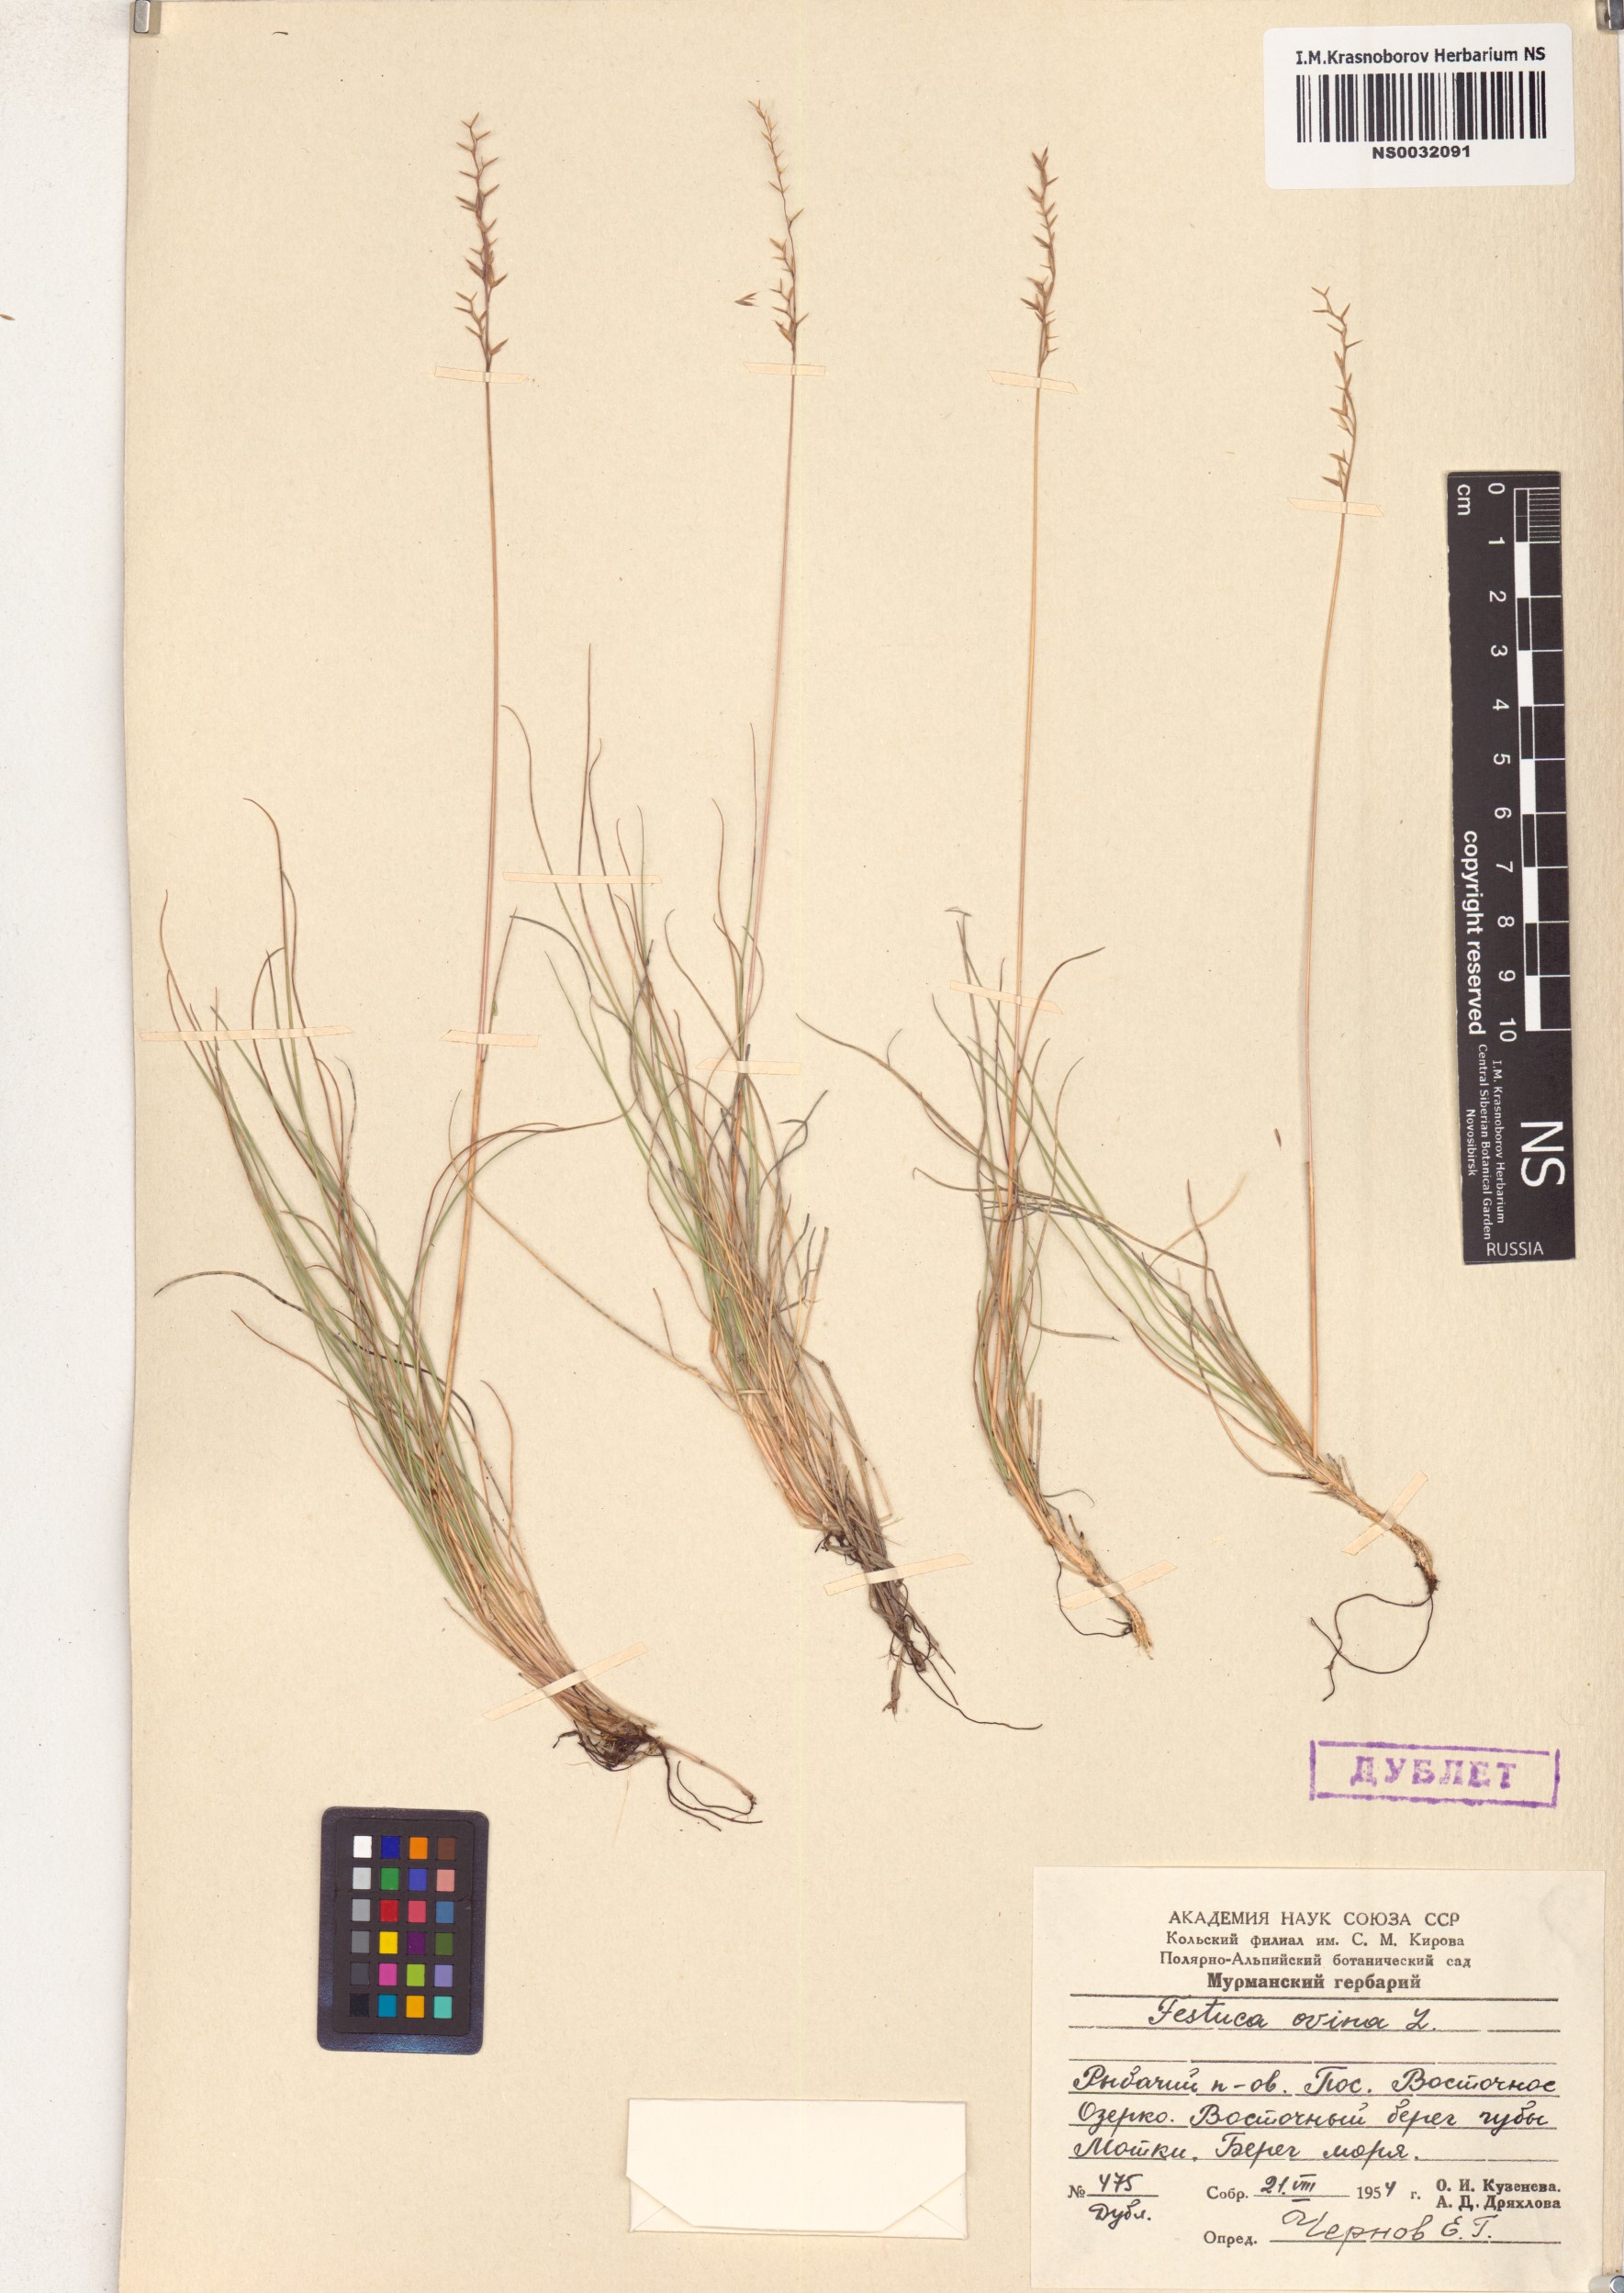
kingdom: Plantae
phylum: Tracheophyta
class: Liliopsida
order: Poales
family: Poaceae
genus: Festuca
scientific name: Festuca ovina
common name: Sheep fescue
